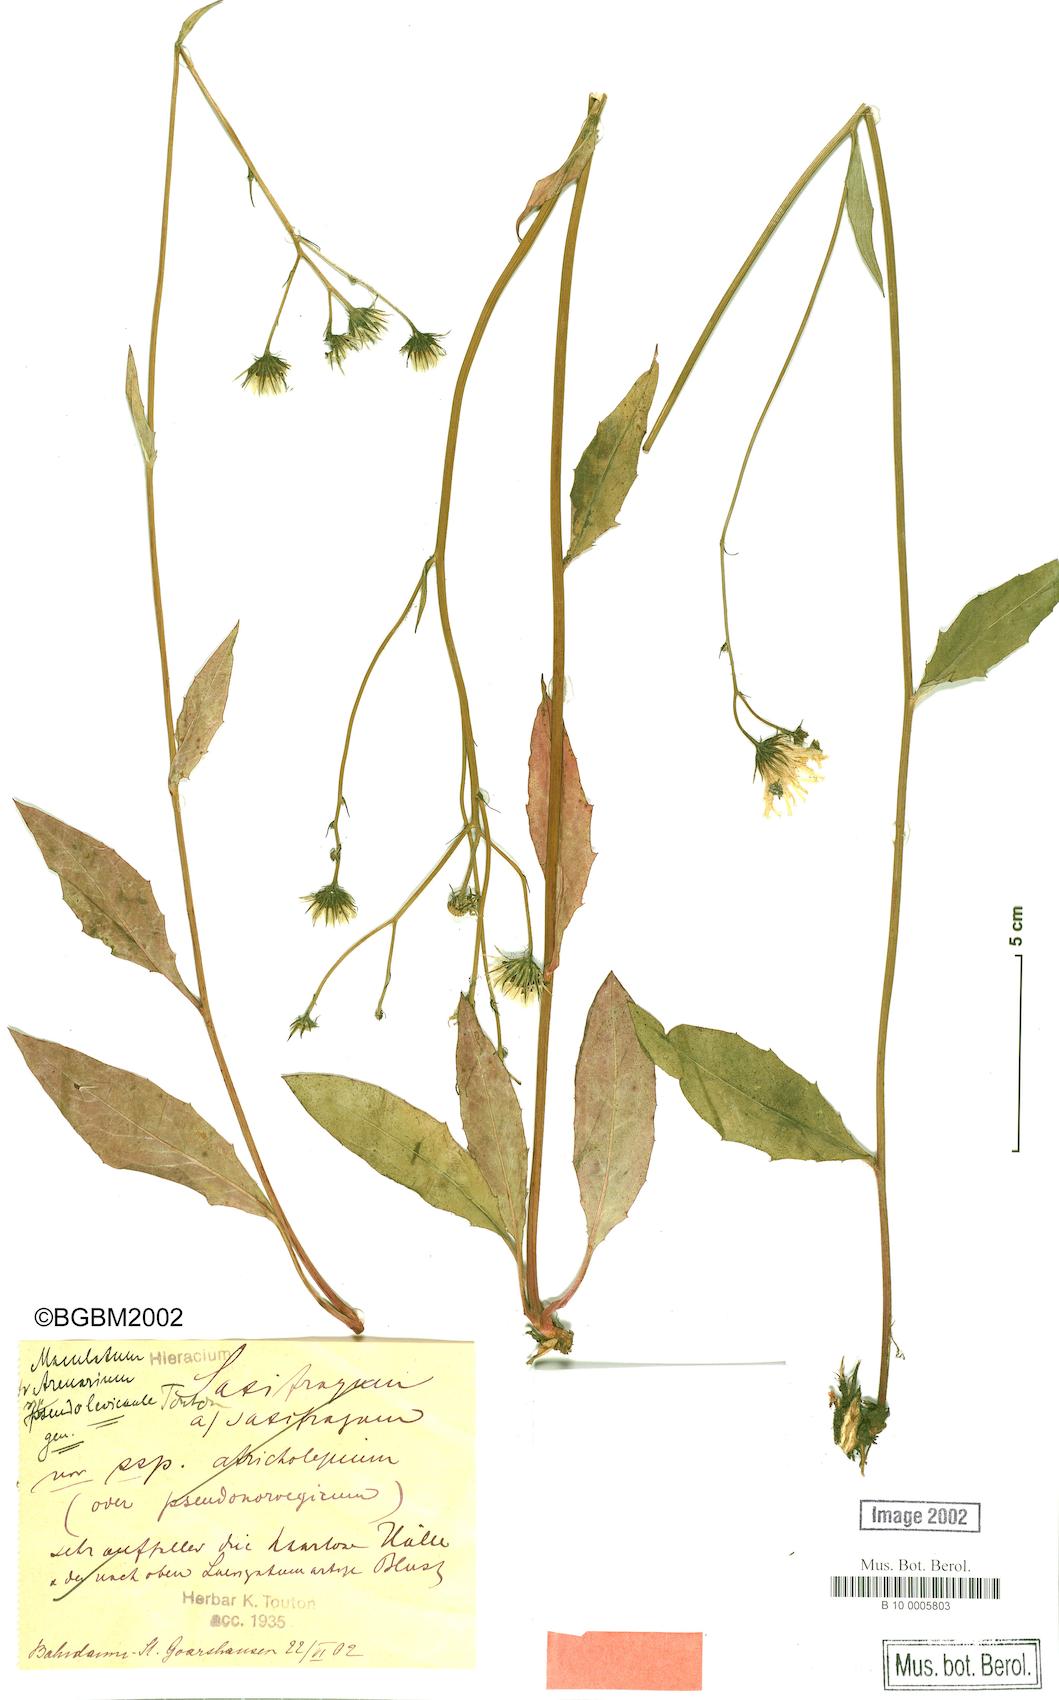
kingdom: Plantae
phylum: Tracheophyta
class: Magnoliopsida
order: Asterales
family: Asteraceae
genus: Hieracium
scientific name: Hieracium maculatum
